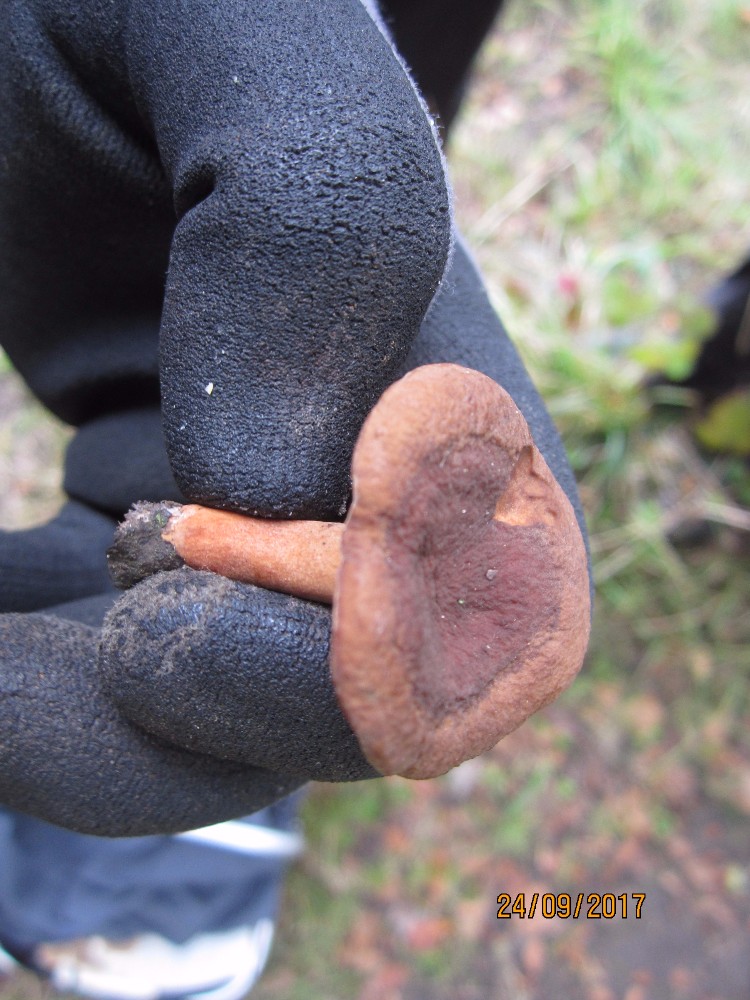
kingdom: Fungi
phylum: Basidiomycota
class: Agaricomycetes
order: Russulales
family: Russulaceae
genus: Lactarius
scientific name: Lactarius serifluus
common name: tæge-mælkehat
